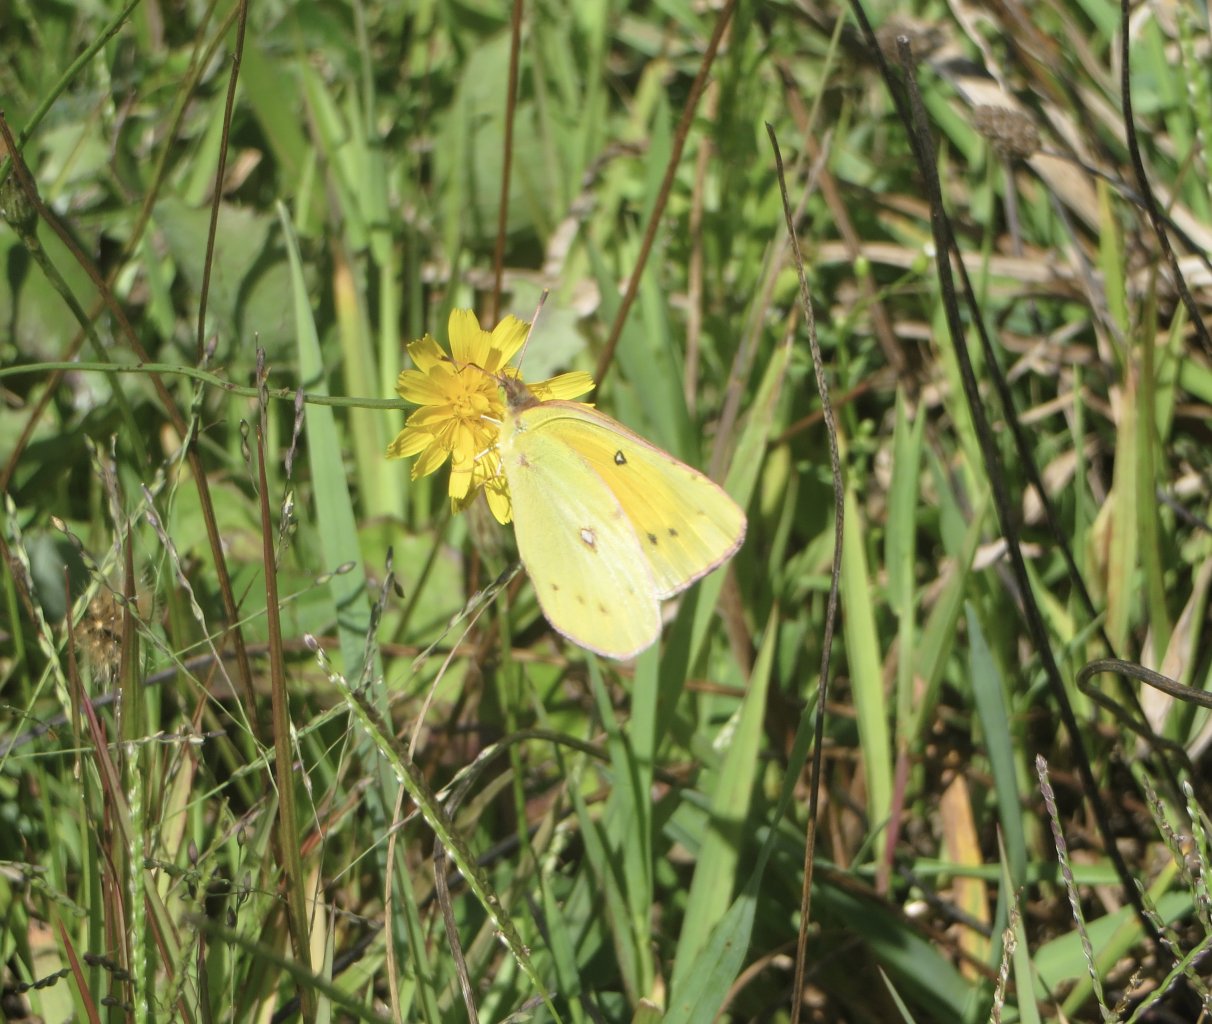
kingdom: Animalia
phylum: Arthropoda
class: Insecta
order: Lepidoptera
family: Pieridae
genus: Colias
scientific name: Colias eurytheme
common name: Orange Sulphur
